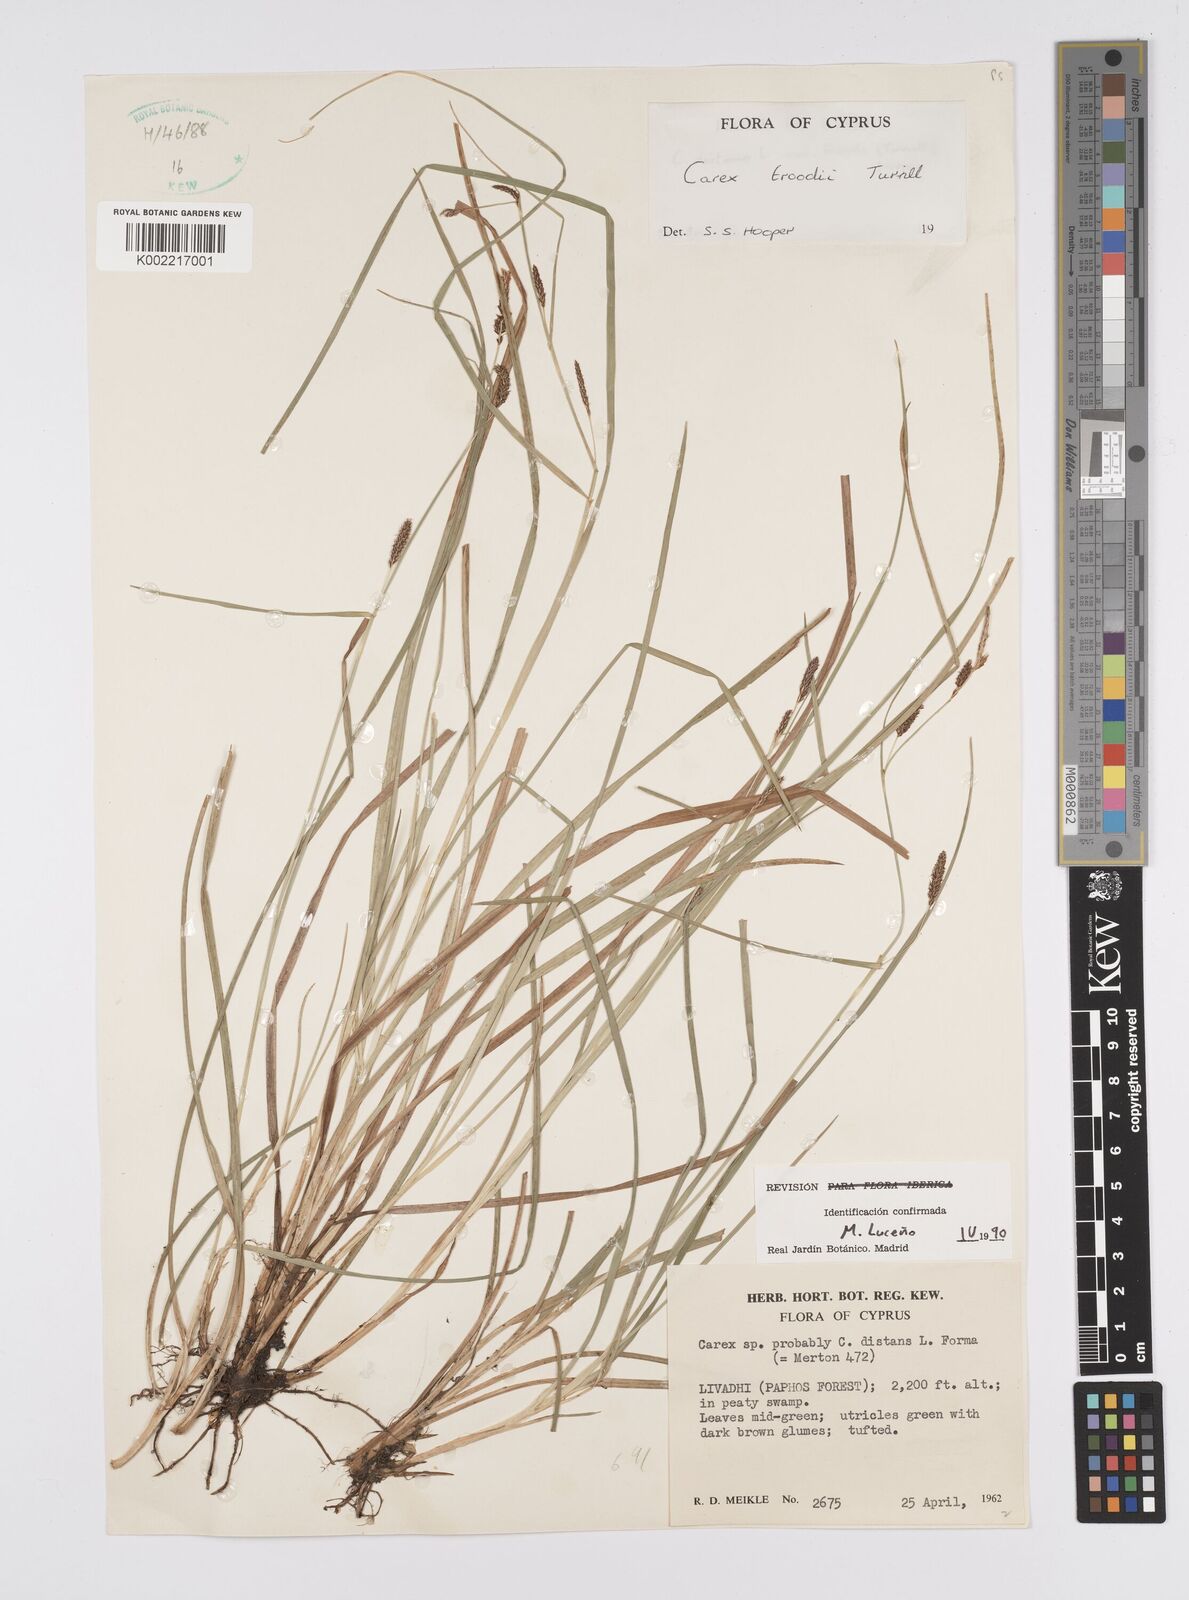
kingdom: Plantae
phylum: Tracheophyta
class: Liliopsida
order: Poales
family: Cyperaceae
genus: Carex
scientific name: Carex troodi
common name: Troodos mount sedge
